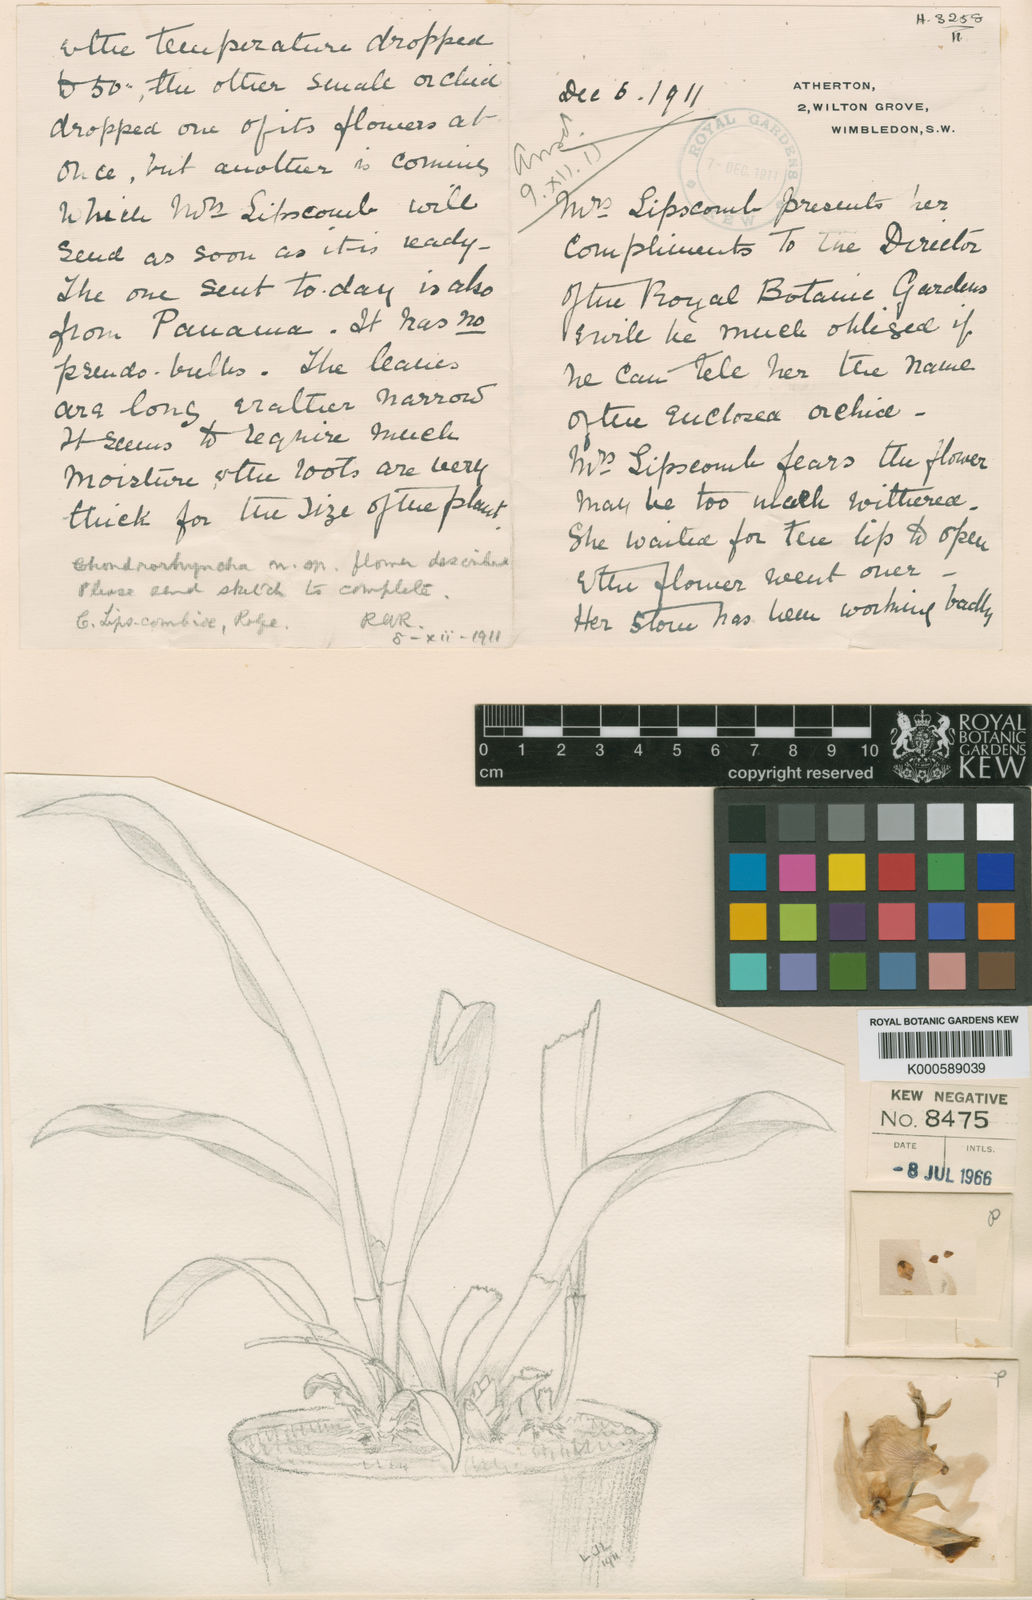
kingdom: Plantae
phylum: Tracheophyta
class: Liliopsida
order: Asparagales
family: Orchidaceae
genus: Warczewiczella
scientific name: Warczewiczella lipscombiae
